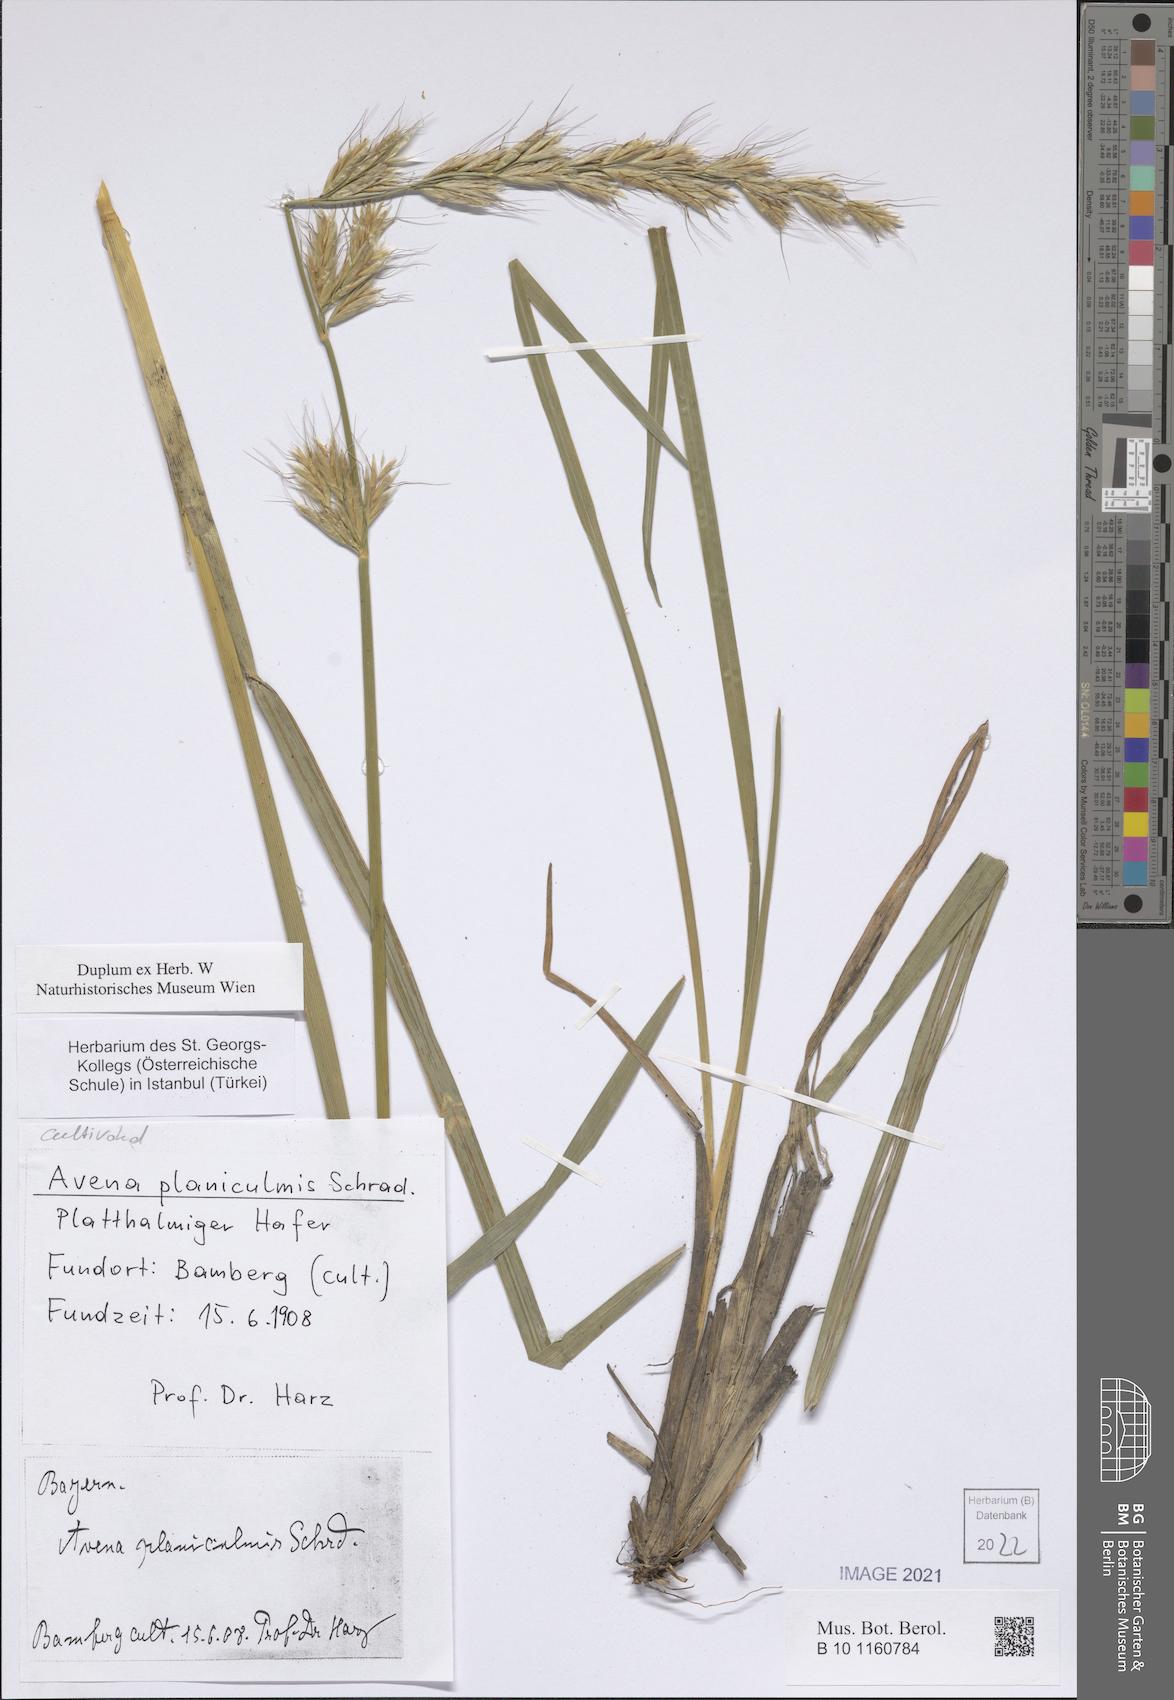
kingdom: Plantae
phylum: Tracheophyta
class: Liliopsida
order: Poales
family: Poaceae
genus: Helictochloa
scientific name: Helictochloa planiculmis
